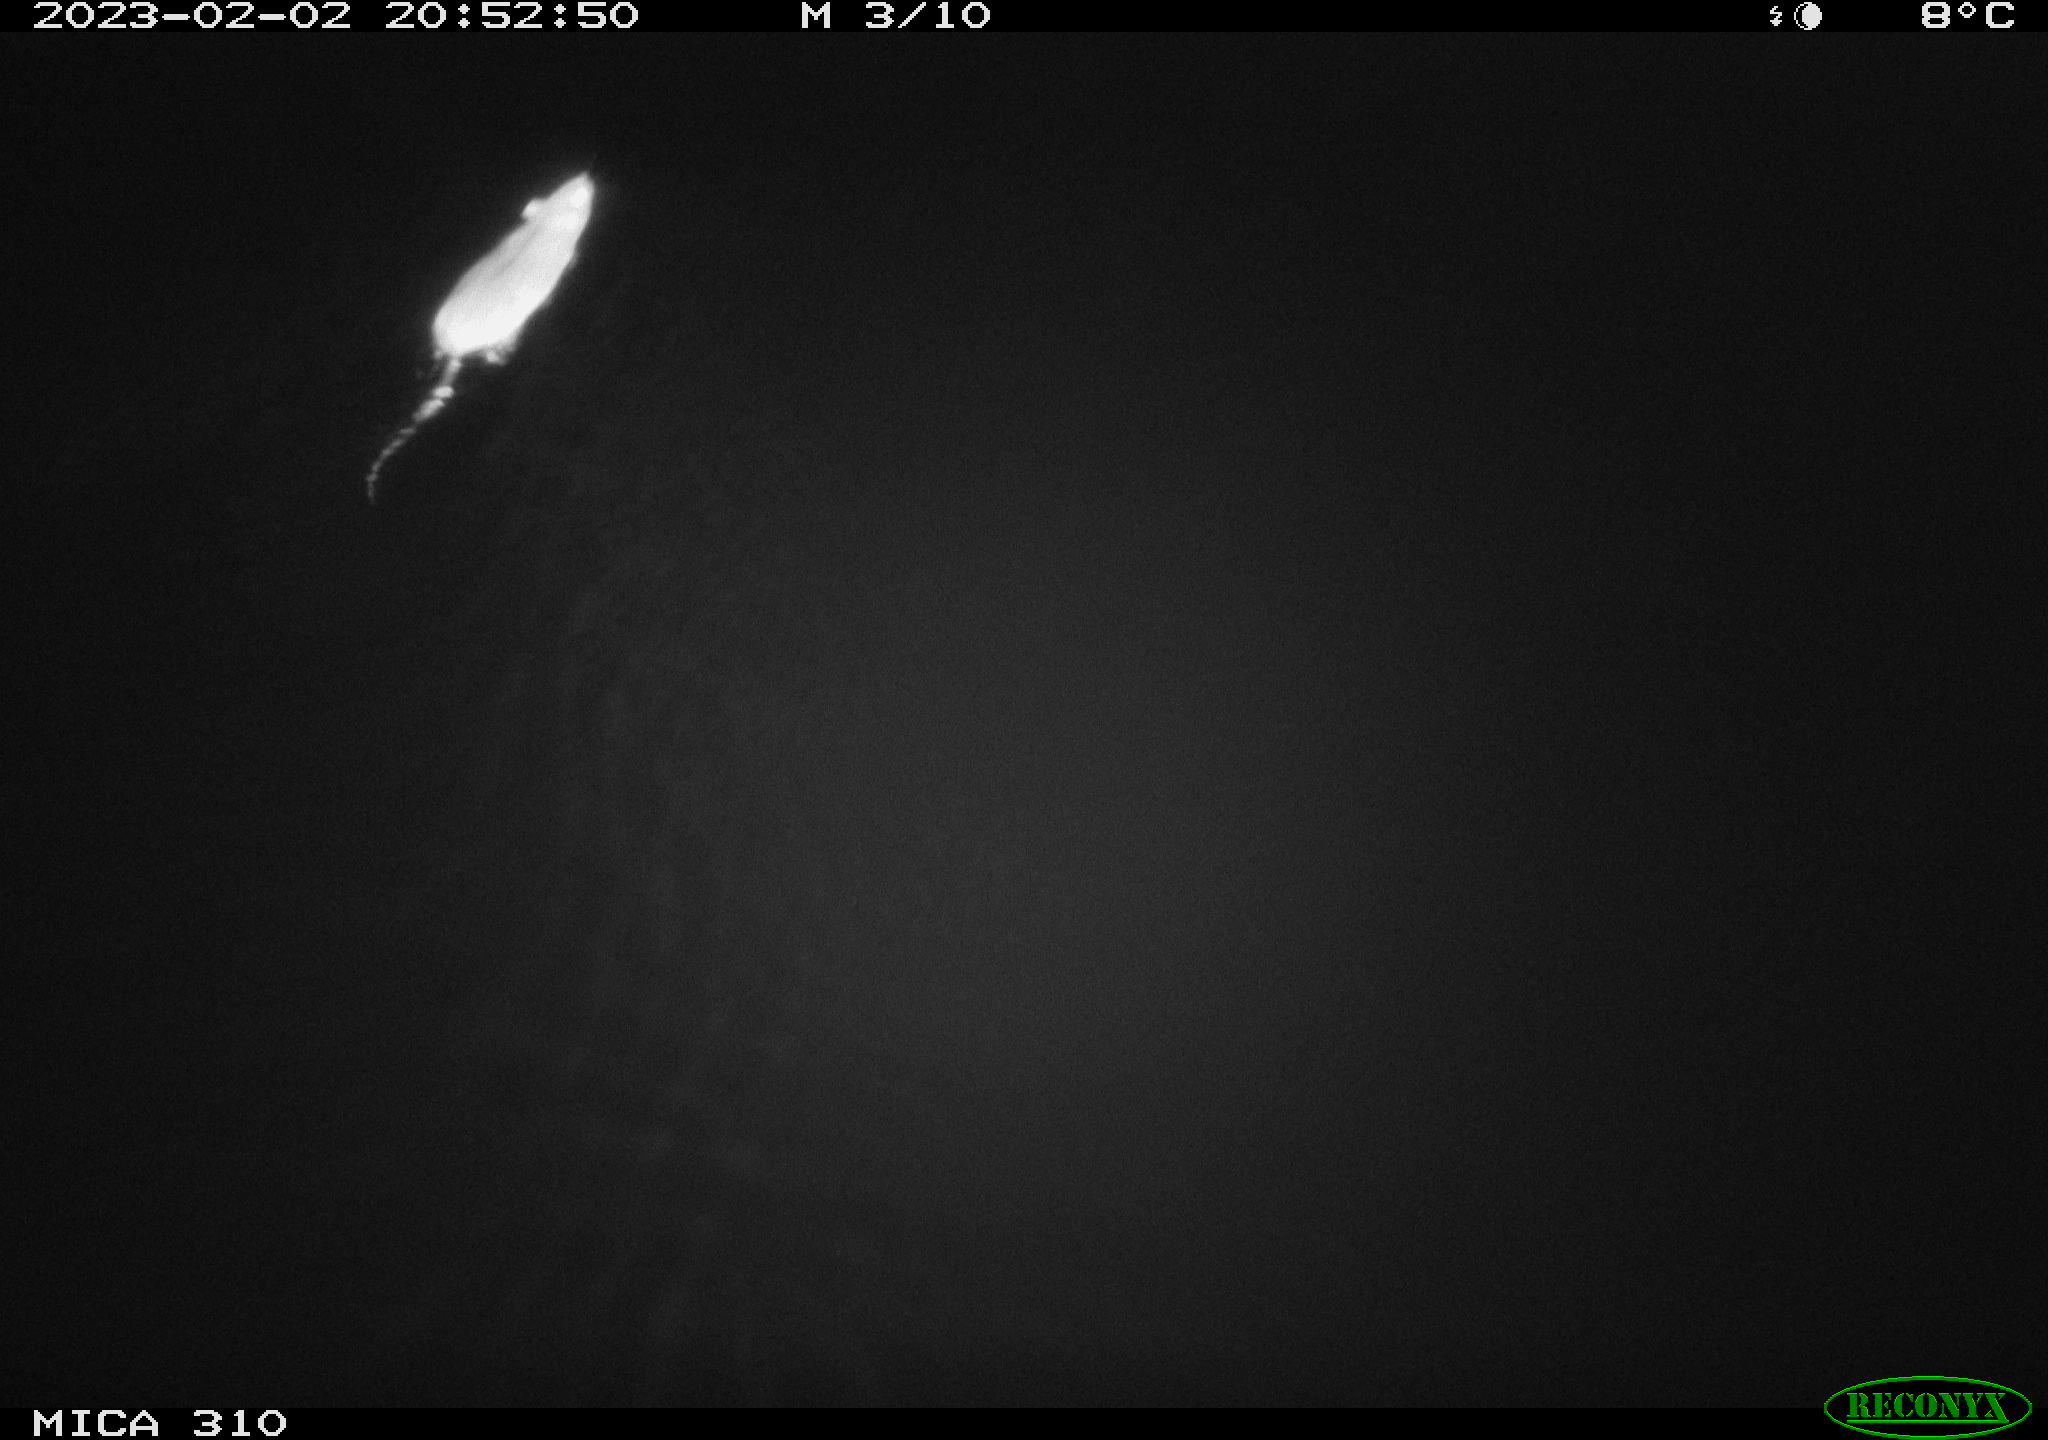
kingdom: Animalia
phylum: Chordata
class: Mammalia
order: Rodentia
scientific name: Rodentia
